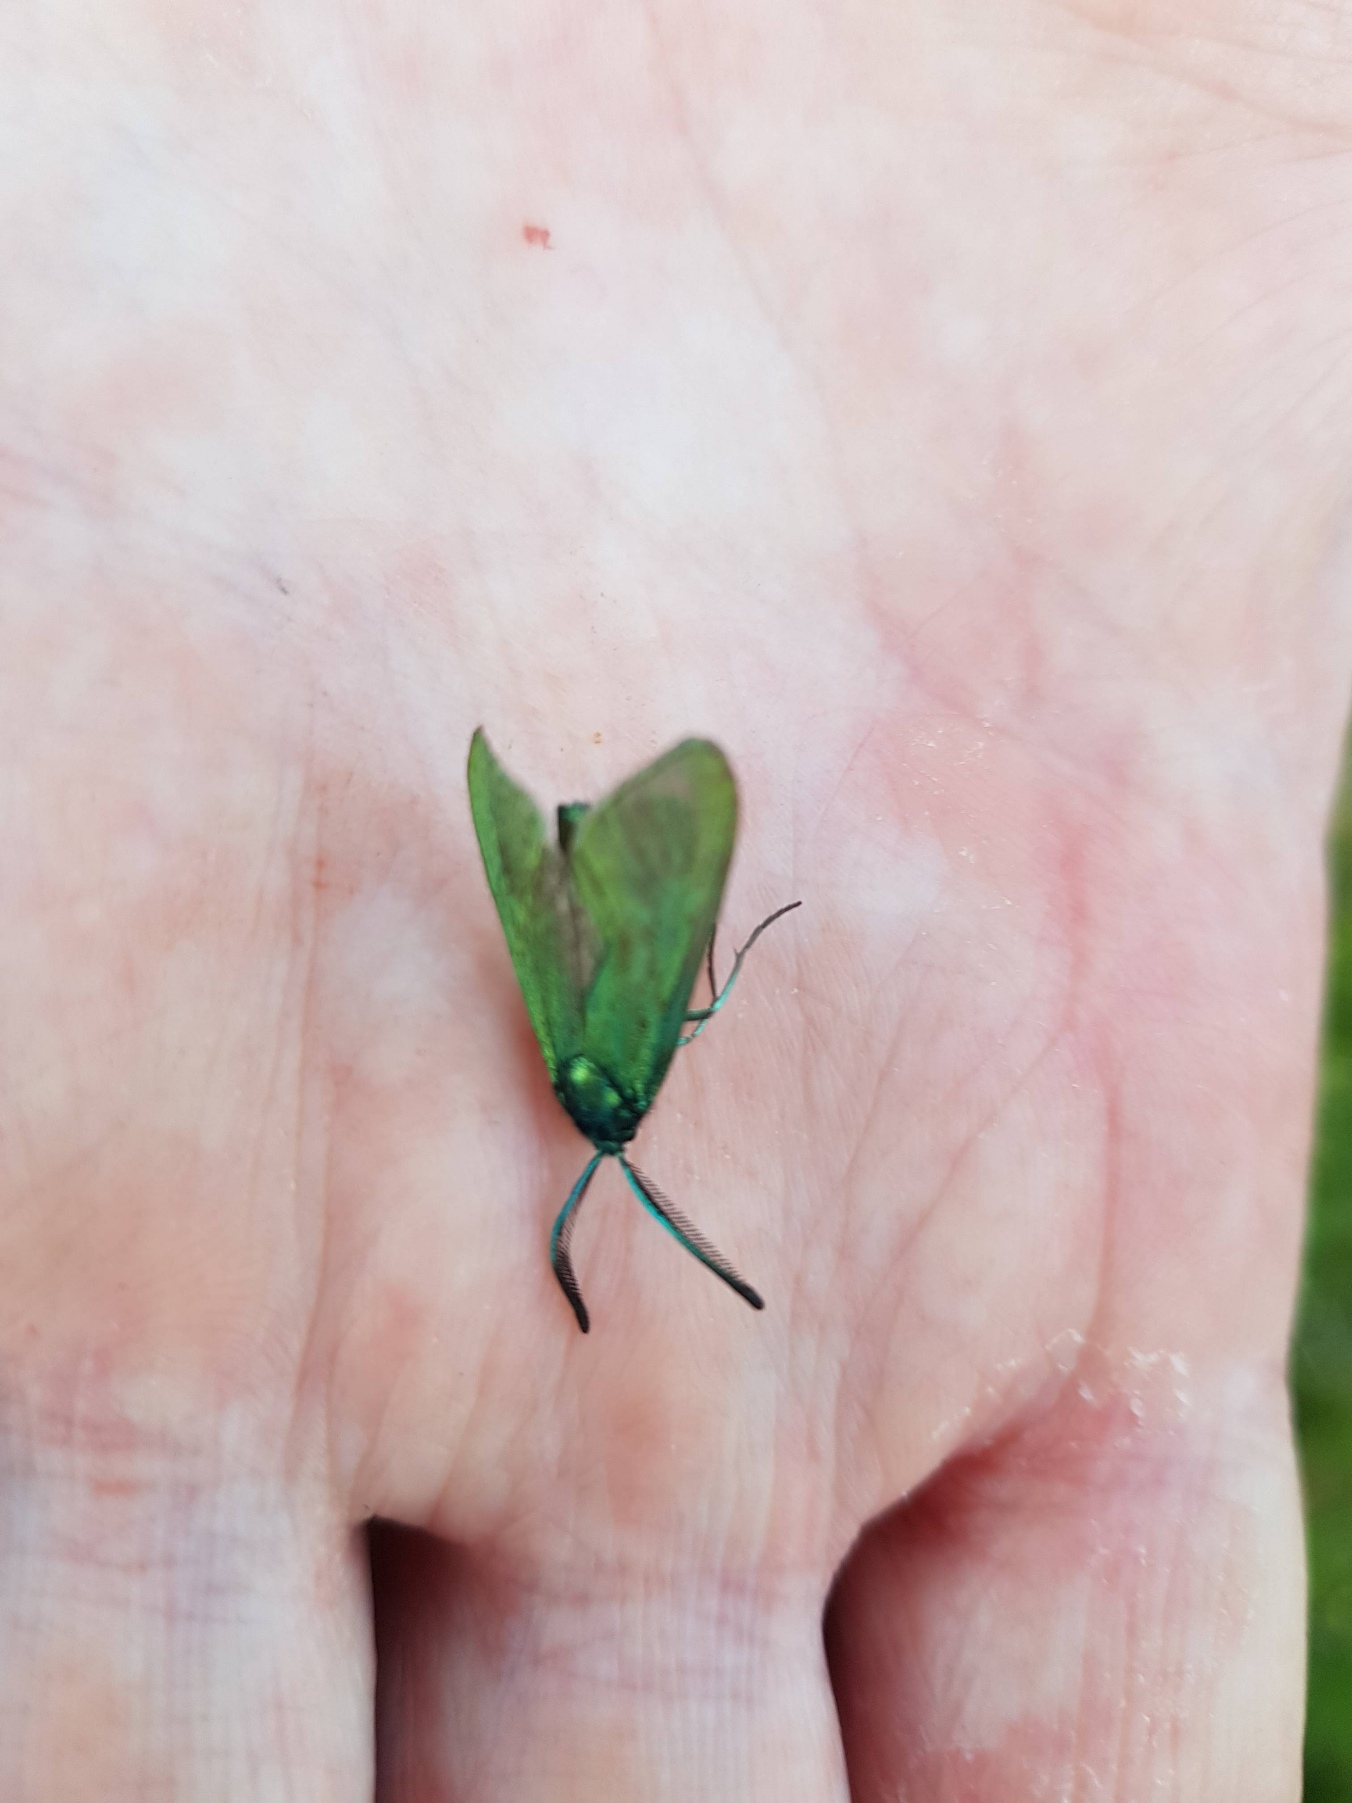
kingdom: Animalia
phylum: Arthropoda
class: Insecta
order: Lepidoptera
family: Zygaenidae
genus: Adscita
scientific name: Adscita statices
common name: Metalvinge
